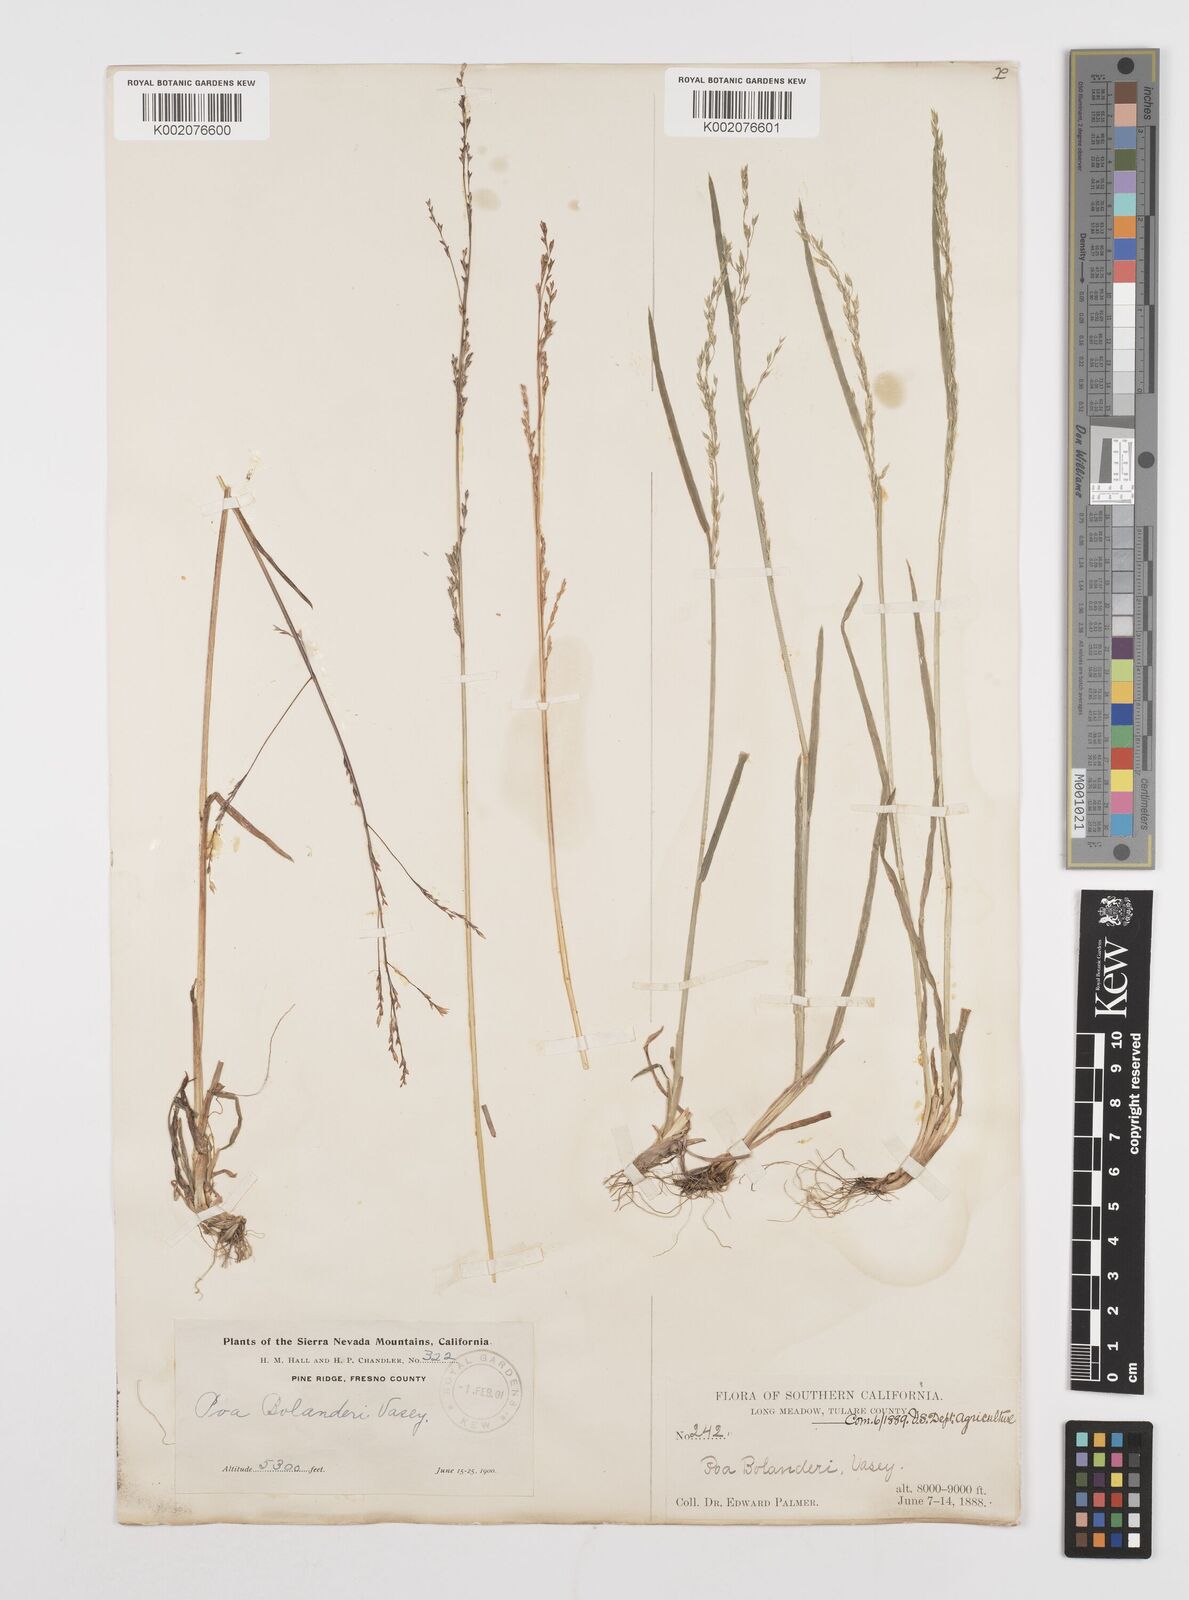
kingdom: Plantae
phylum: Tracheophyta
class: Liliopsida
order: Poales
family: Poaceae
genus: Poa
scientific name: Poa bolanderi
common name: Bolander's bluegrass
